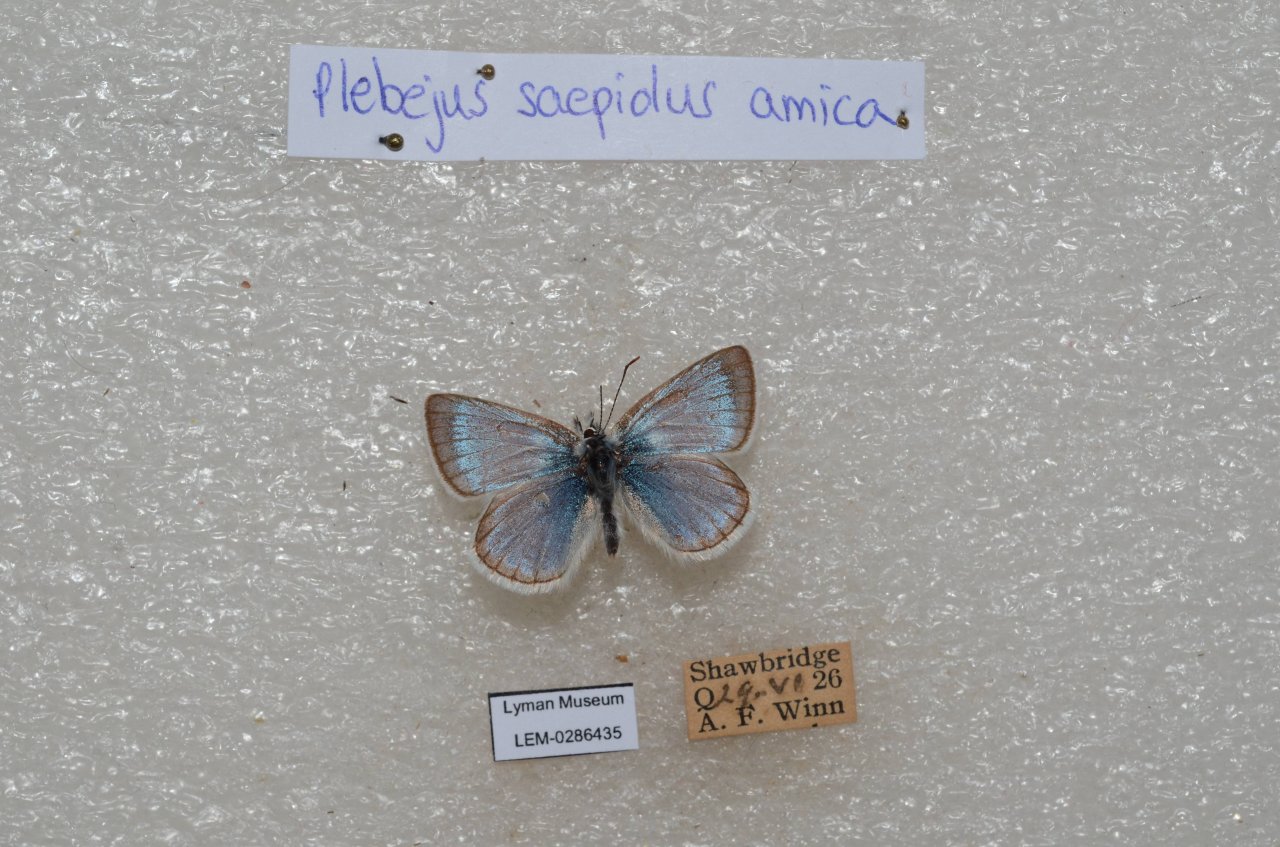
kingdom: Animalia
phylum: Arthropoda
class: Insecta
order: Lepidoptera
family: Lycaenidae
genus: Plebejus
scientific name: Plebejus saepiolus
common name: Greenish Blue
